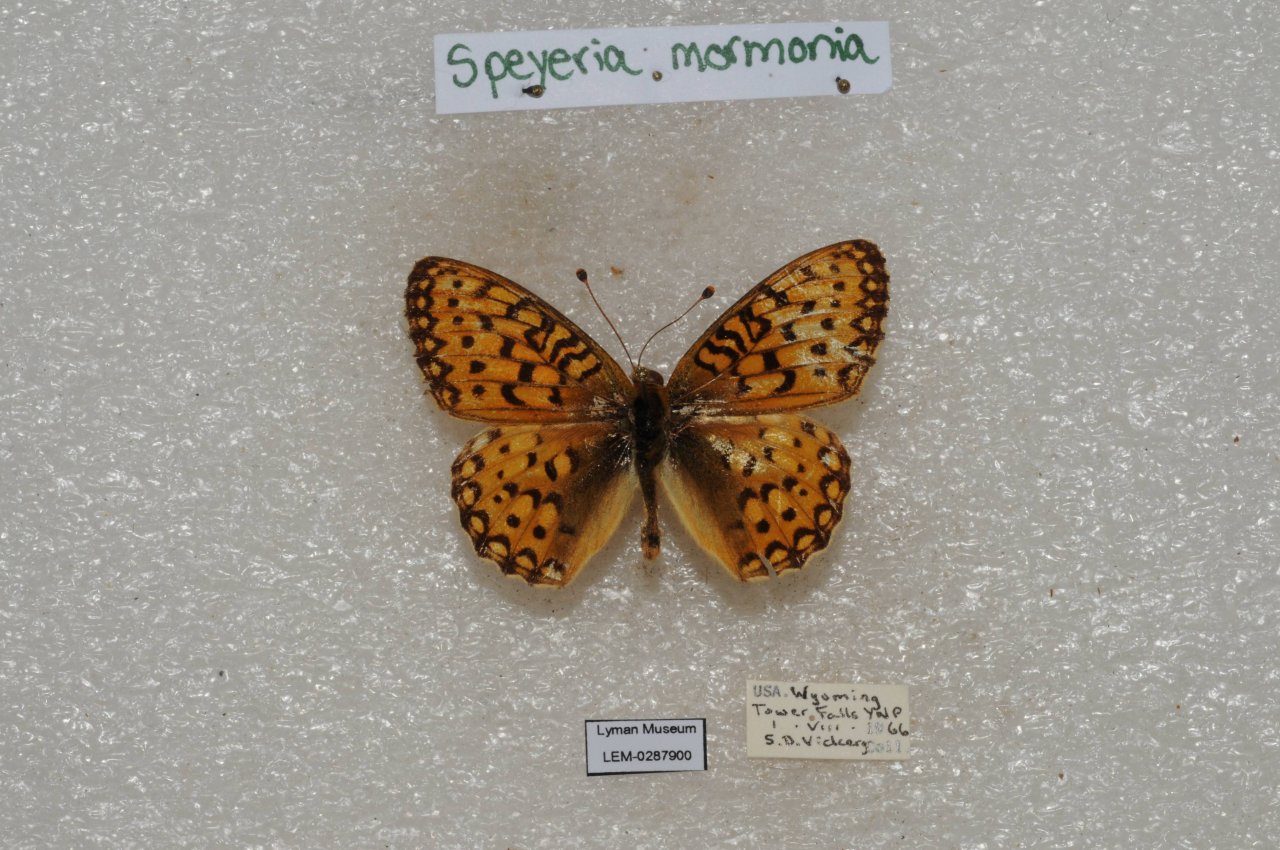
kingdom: Animalia
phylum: Arthropoda
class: Insecta
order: Lepidoptera
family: Nymphalidae
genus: Speyeria
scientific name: Speyeria mormonia
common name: Mormon Fritillary
